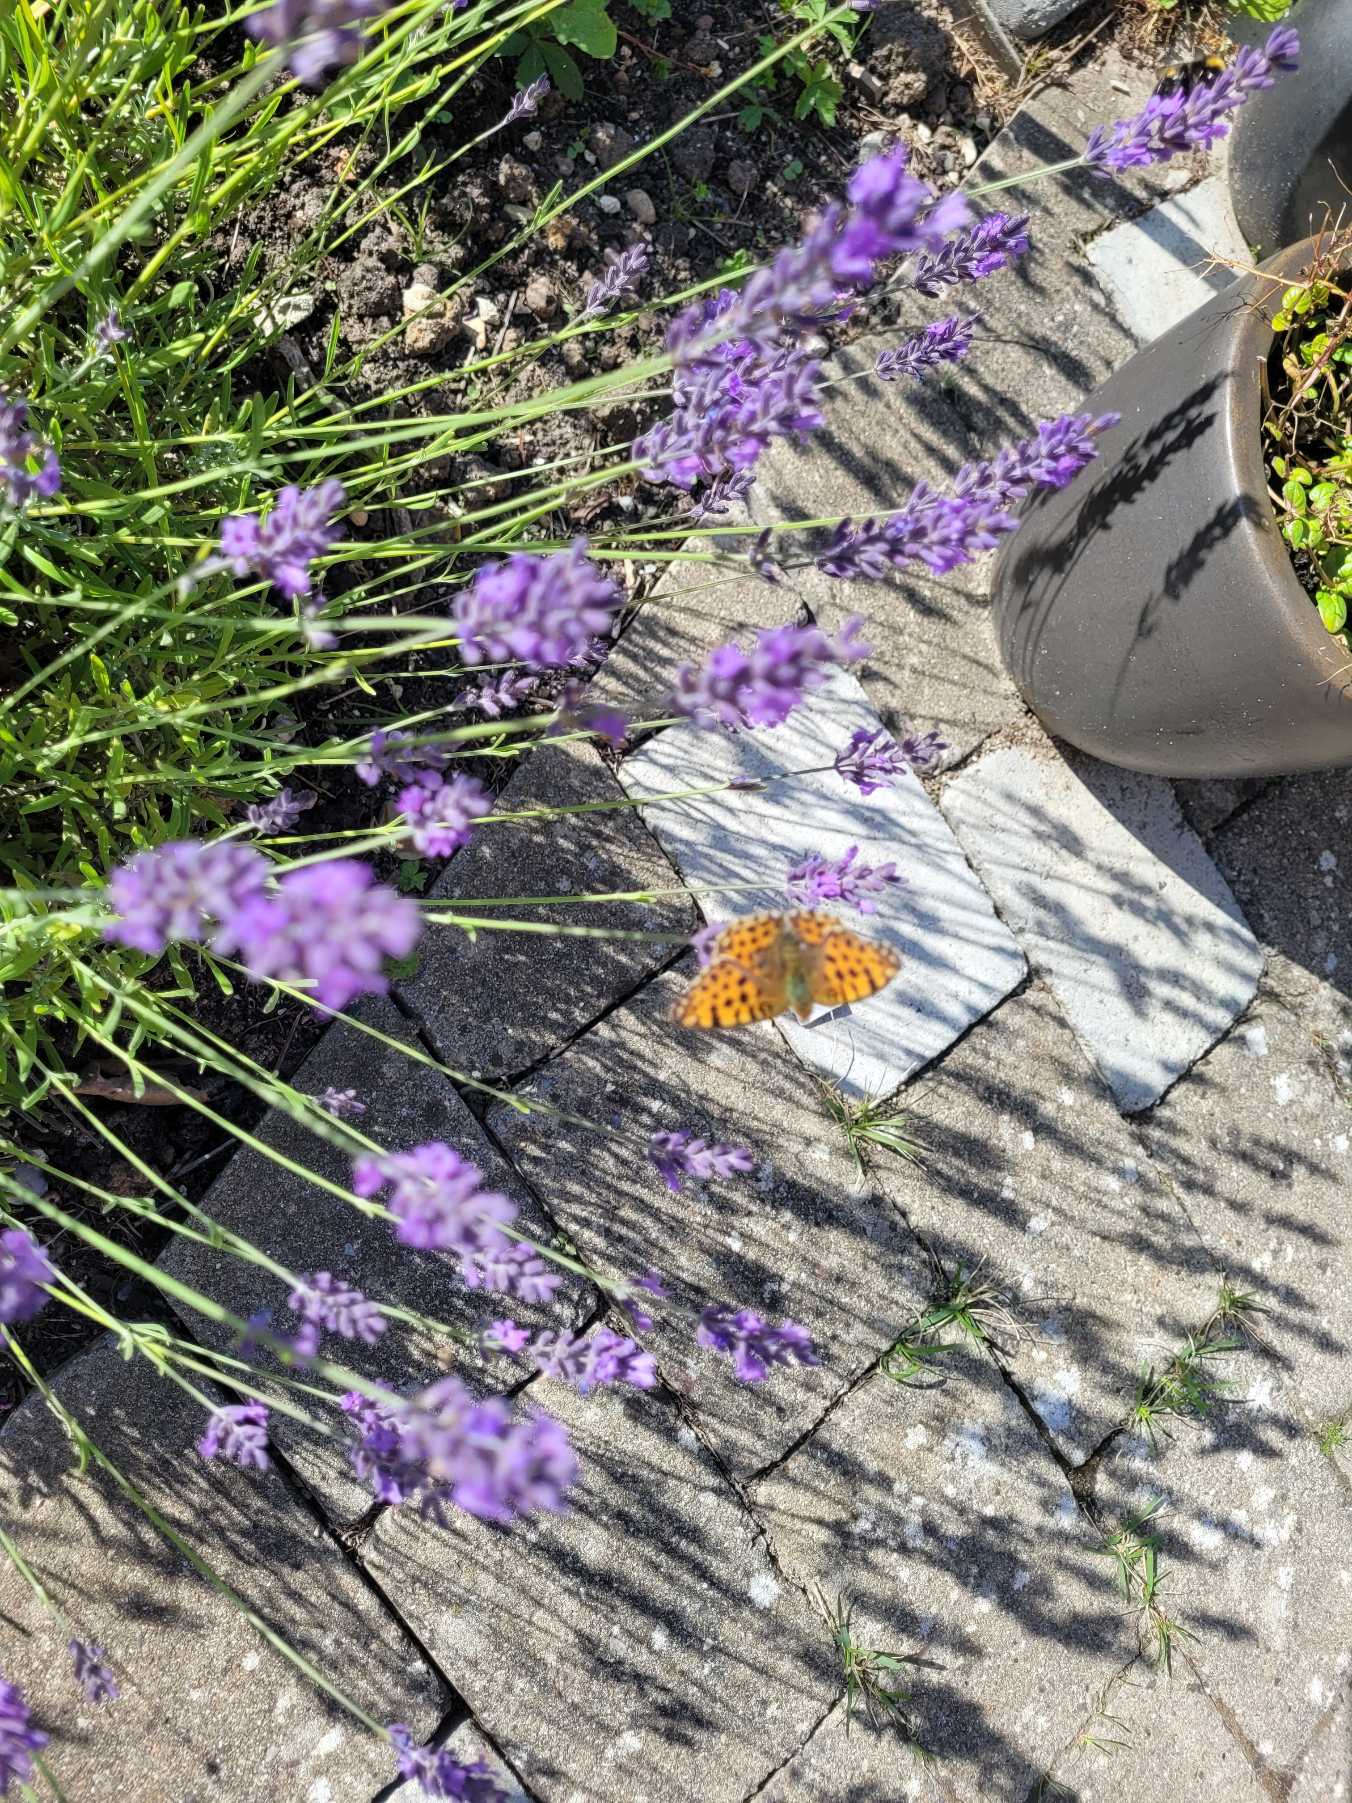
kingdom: Animalia
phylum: Arthropoda
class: Insecta
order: Lepidoptera
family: Nymphalidae
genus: Issoria
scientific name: Issoria lathonia
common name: Storplettet perlemorsommerfugl
